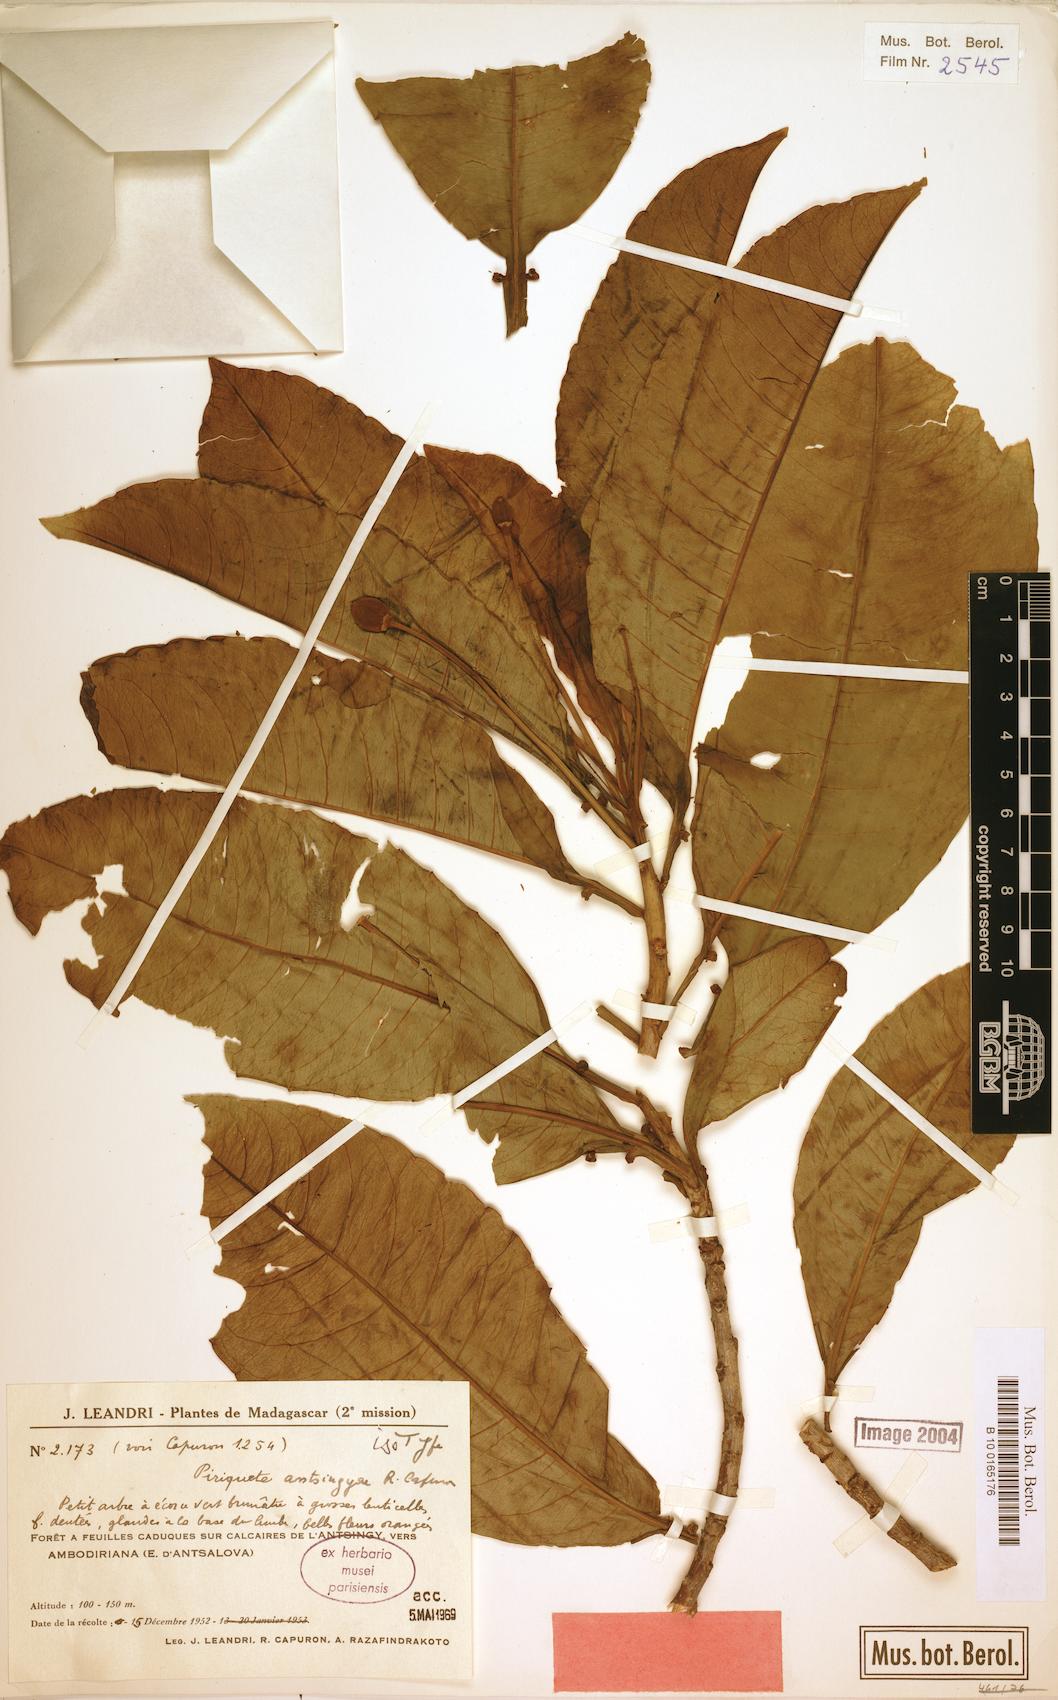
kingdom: Plantae
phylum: Tracheophyta
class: Magnoliopsida
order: Malpighiales
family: Turneraceae
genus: Arboa
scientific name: Arboa antsingyae
